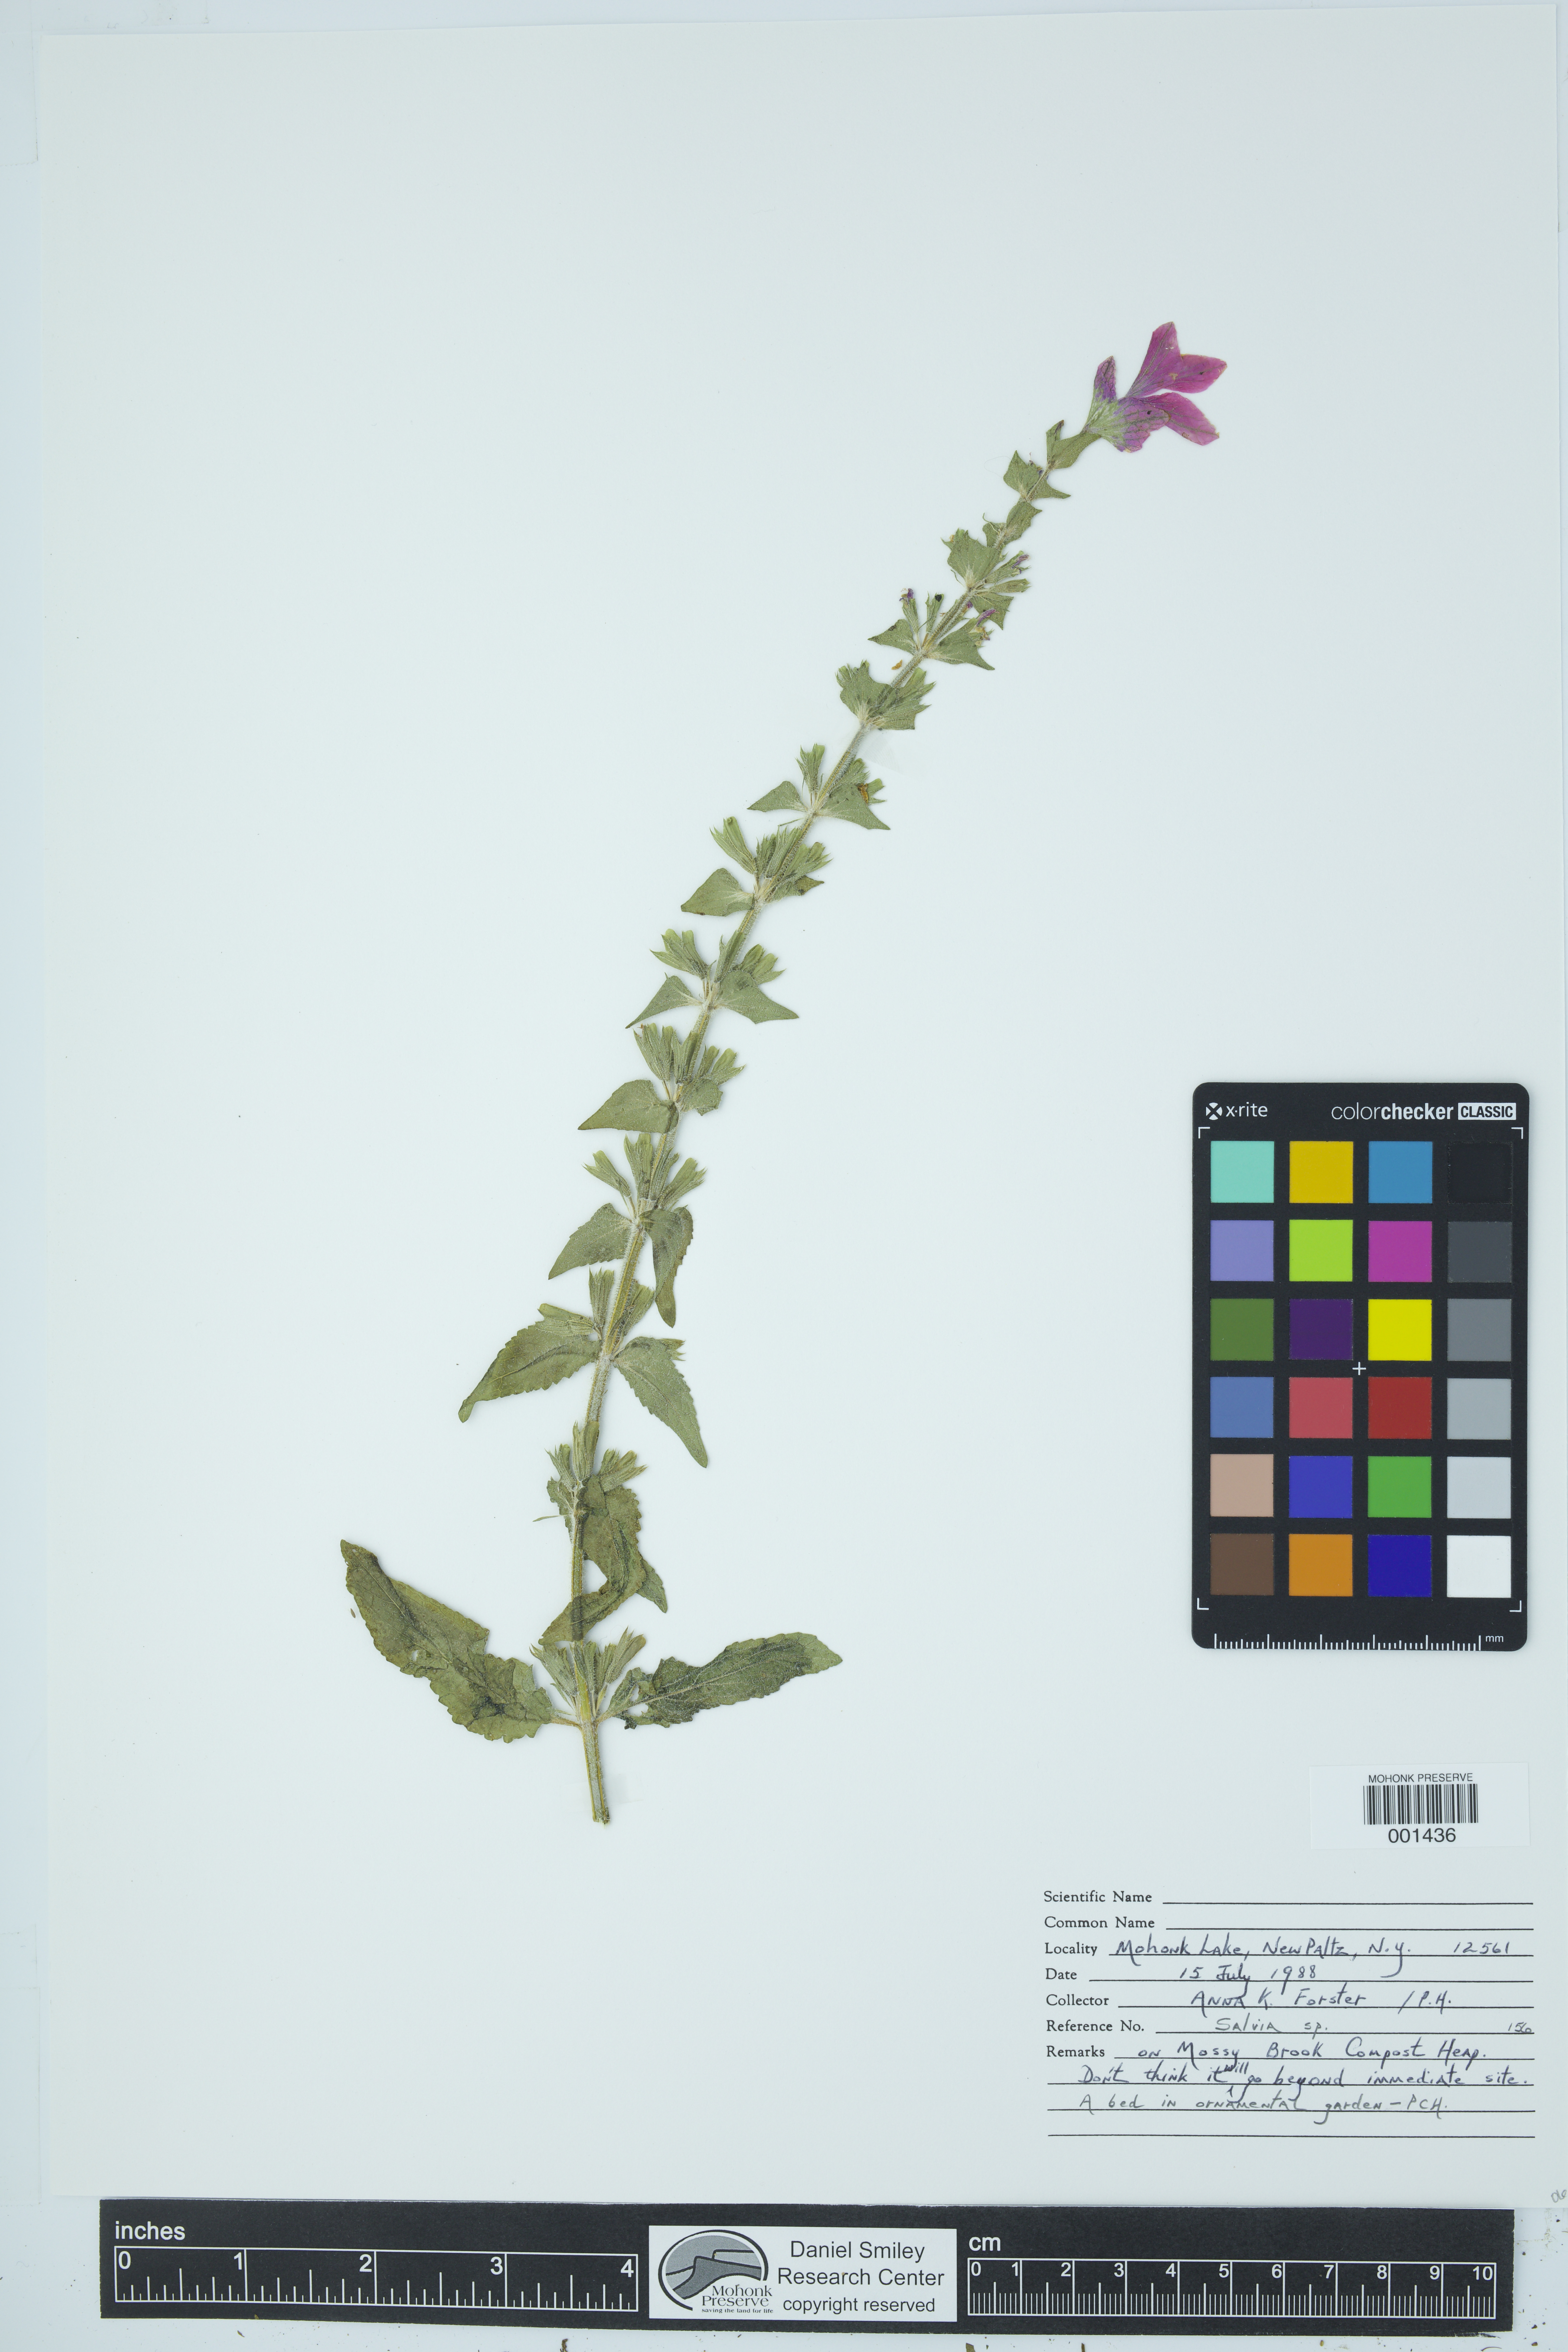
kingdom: Plantae
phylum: Tracheophyta
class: Magnoliopsida
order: Lamiales
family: Lamiaceae
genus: Salvia
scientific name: Salvia
